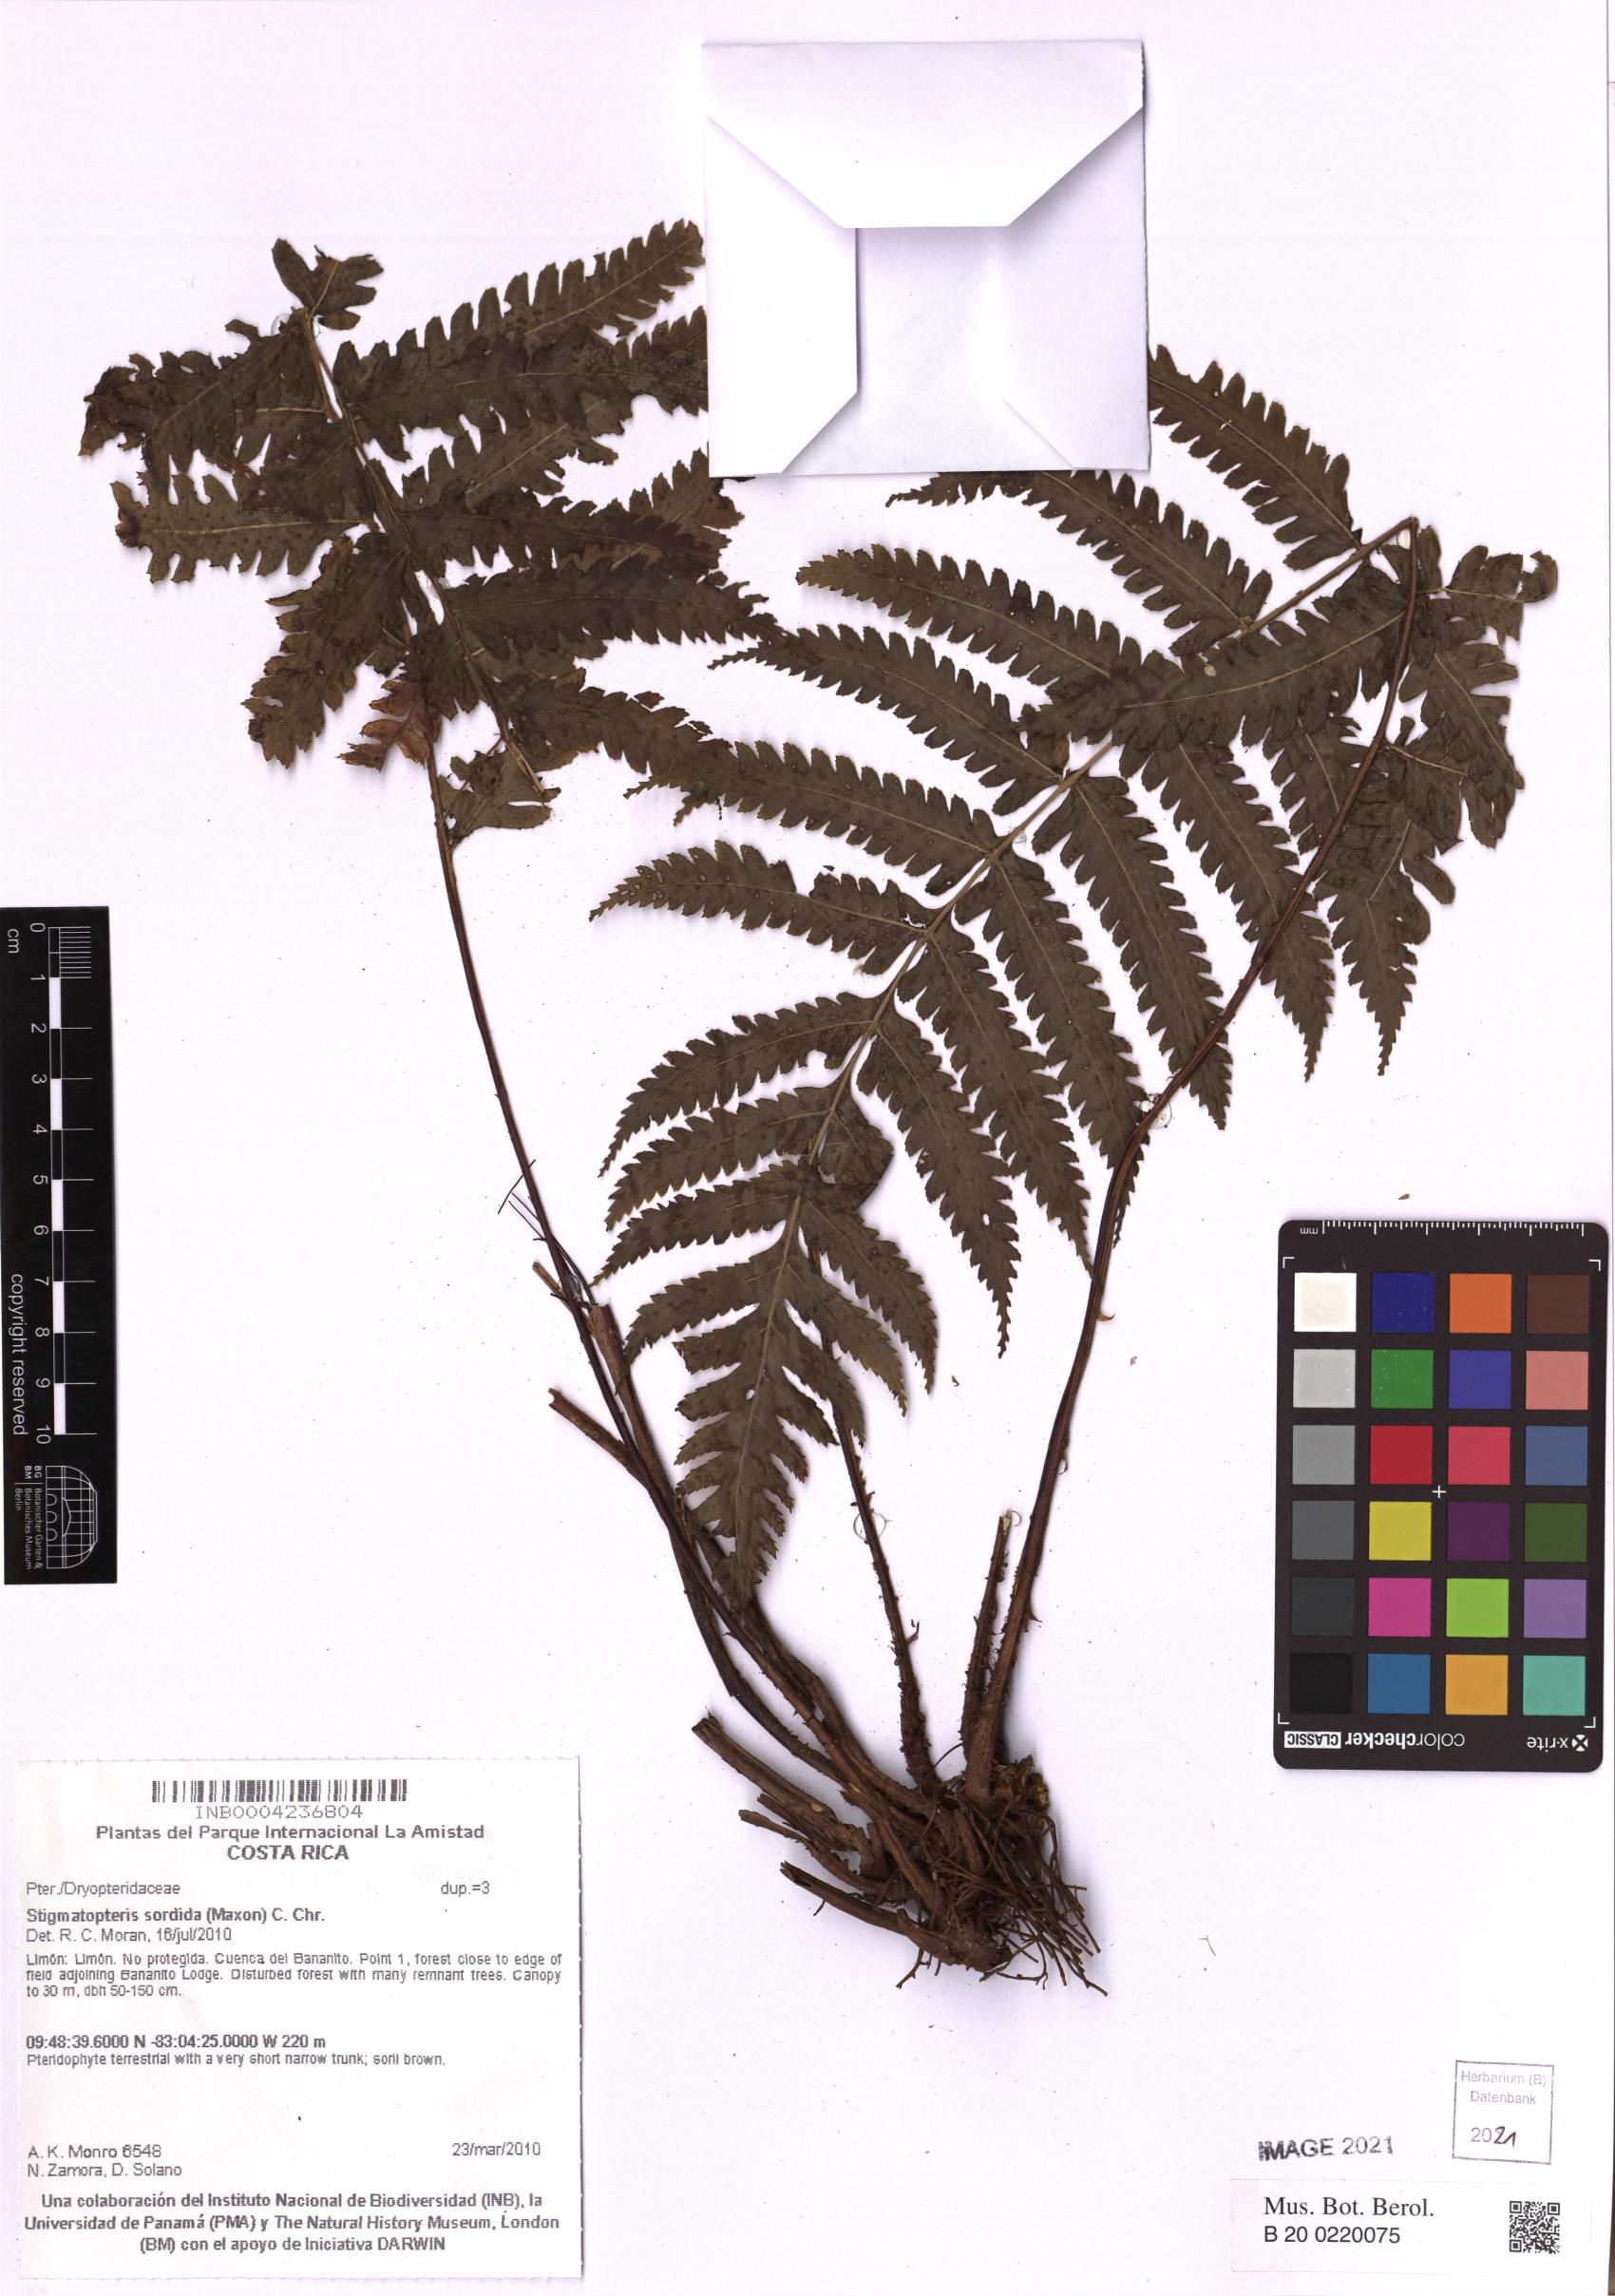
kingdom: Plantae
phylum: Tracheophyta
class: Polypodiopsida
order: Polypodiales
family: Dryopteridaceae
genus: Stigmatopteris
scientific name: Stigmatopteris sordida
